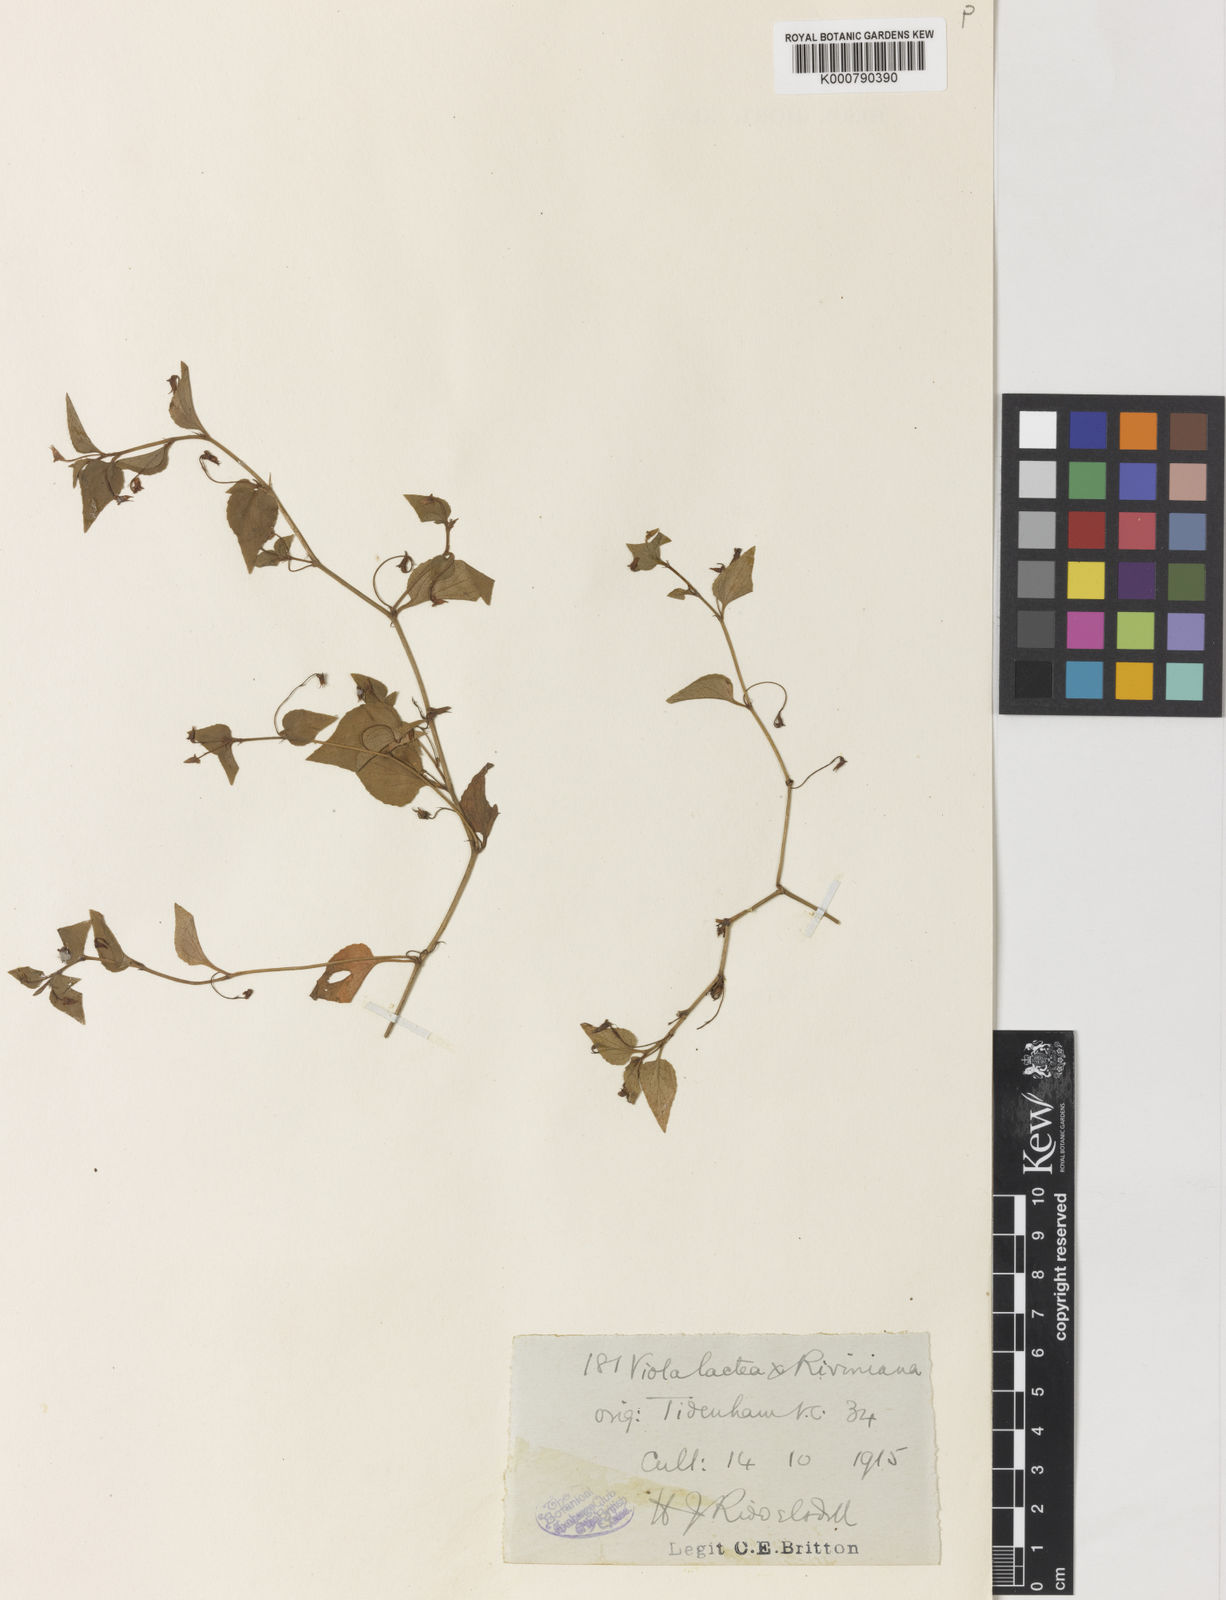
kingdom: Plantae
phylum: Tracheophyta
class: Magnoliopsida
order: Malpighiales
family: Violaceae
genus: Viola
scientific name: Viola lactea
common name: Pale dog-violet
